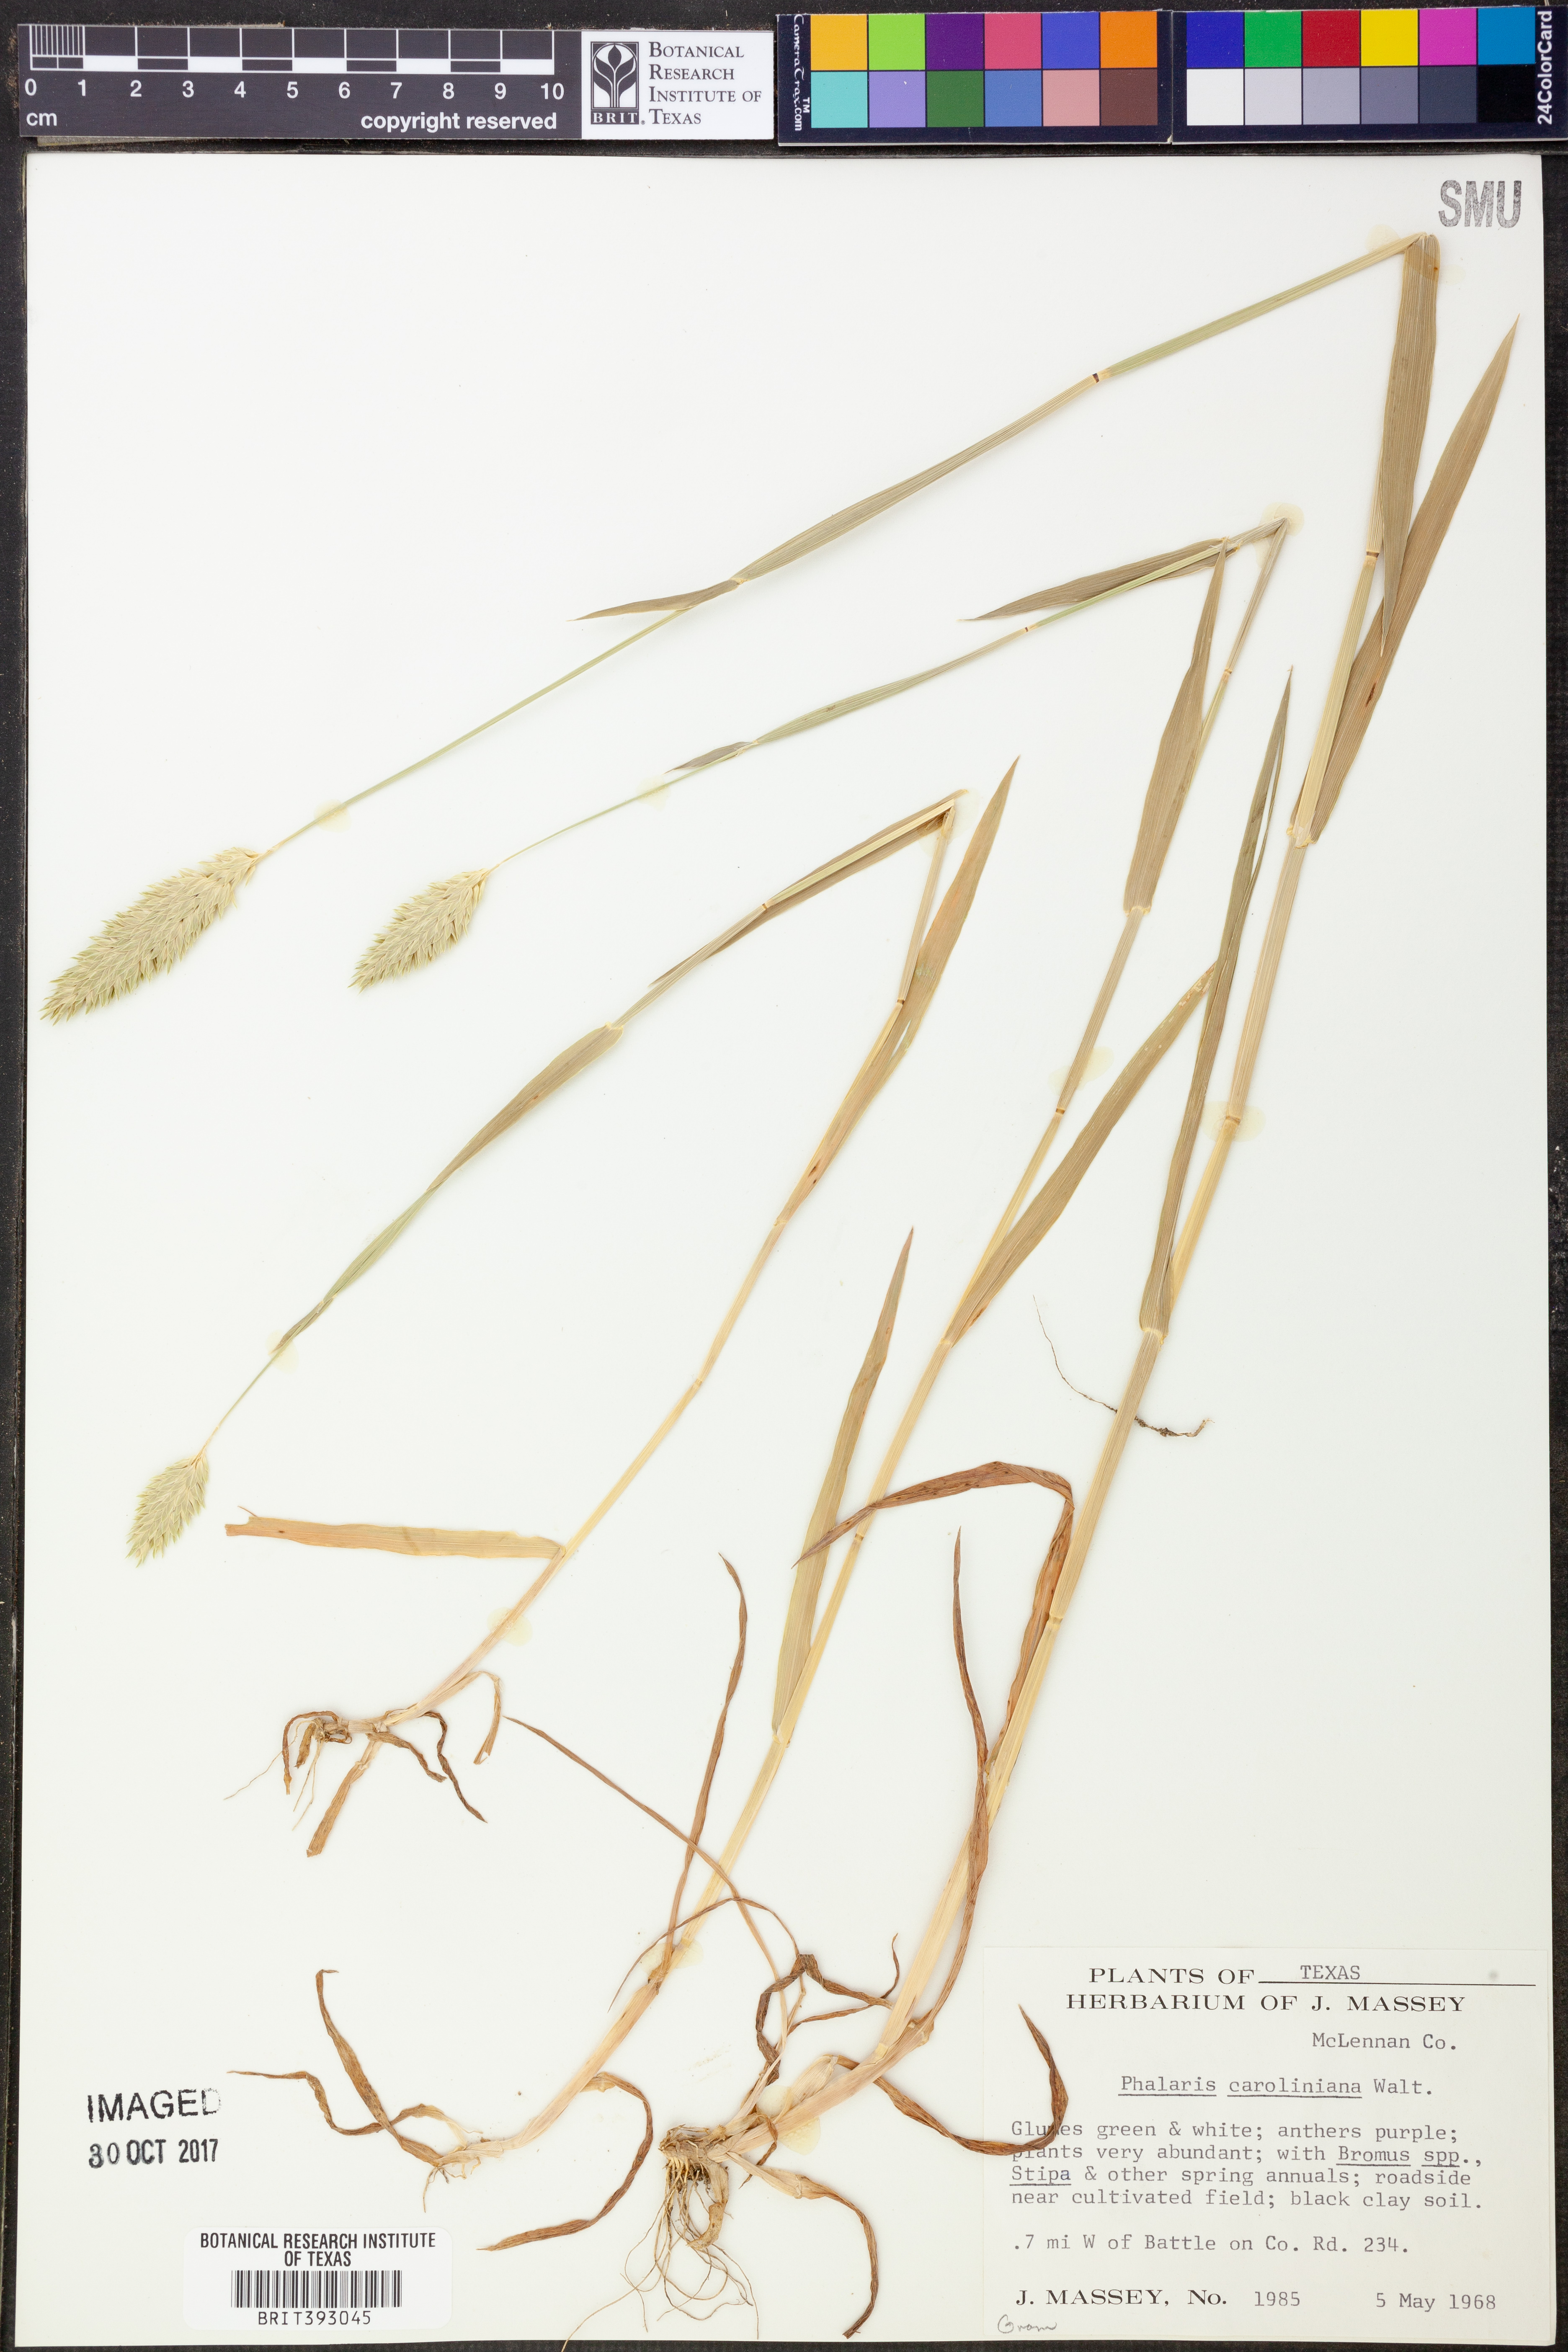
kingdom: Plantae
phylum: Tracheophyta
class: Liliopsida
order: Poales
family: Poaceae
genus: Phalaris
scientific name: Phalaris caroliniana
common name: May grass
